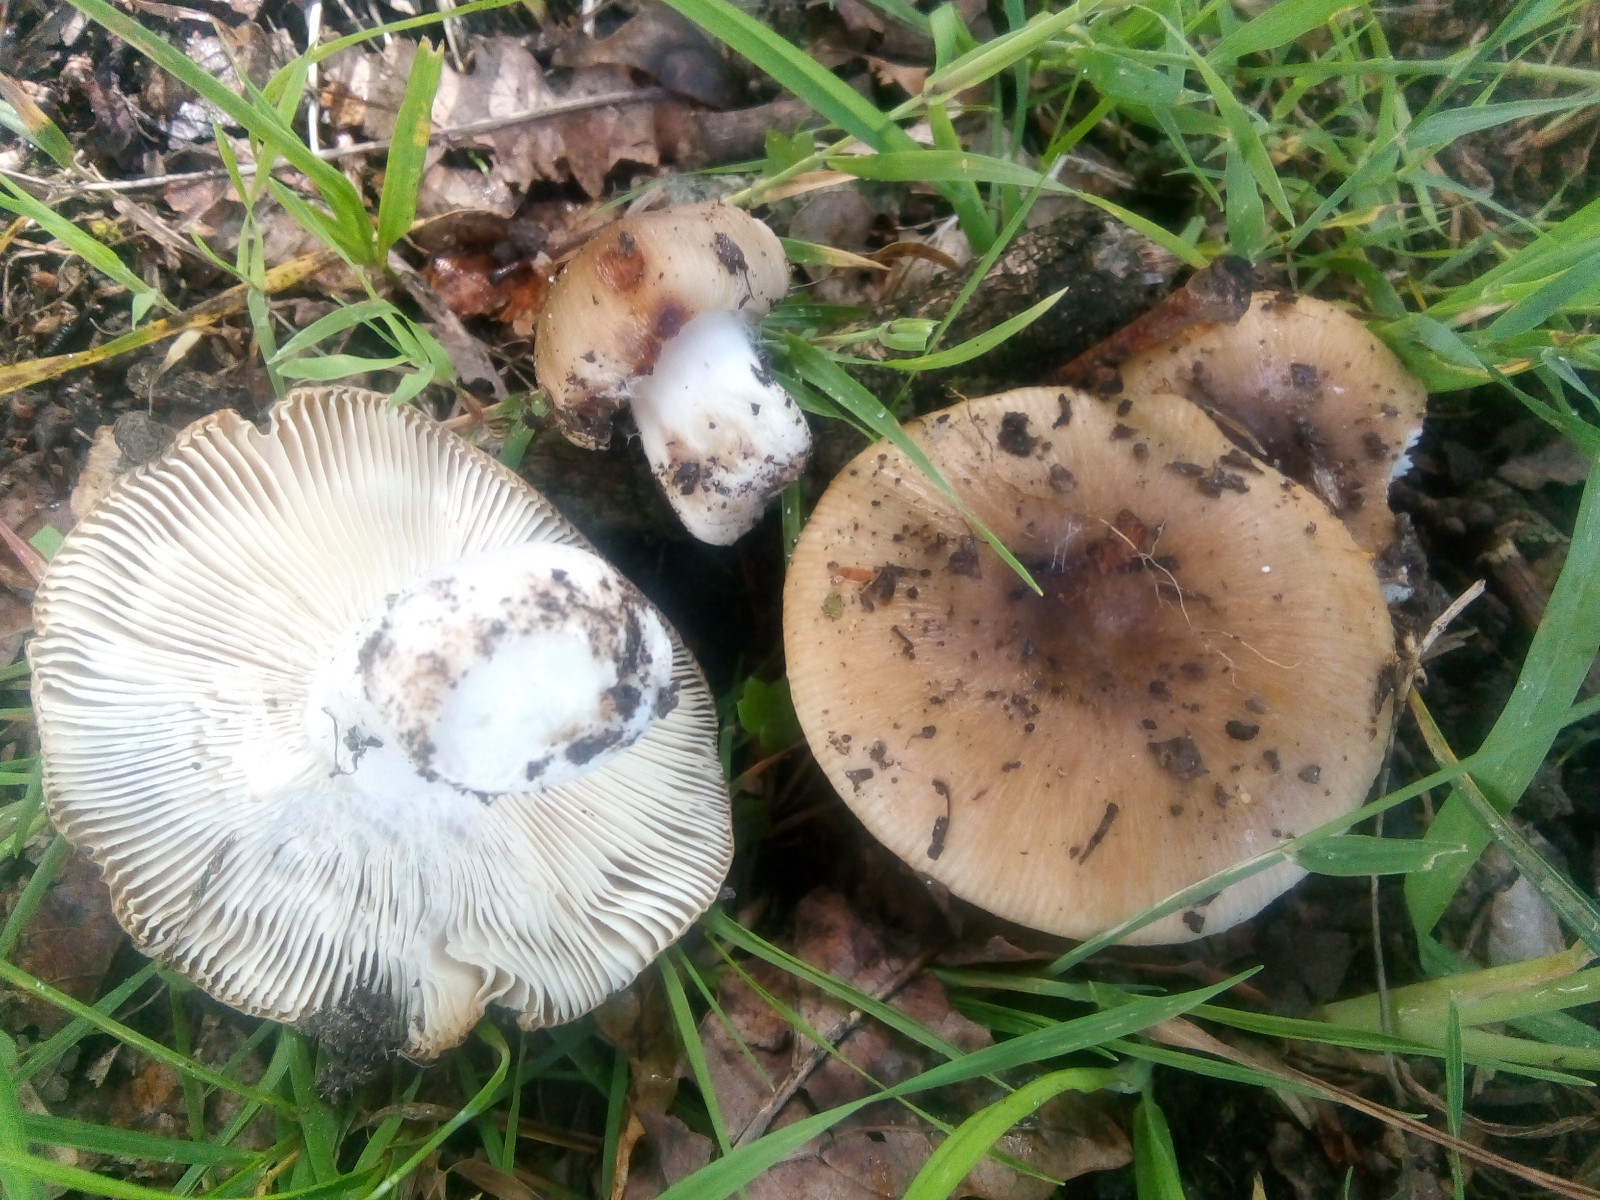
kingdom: Fungi
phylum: Basidiomycota
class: Agaricomycetes
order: Russulales
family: Russulaceae
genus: Russula
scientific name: Russula recondita
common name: mild kam-skørhat
